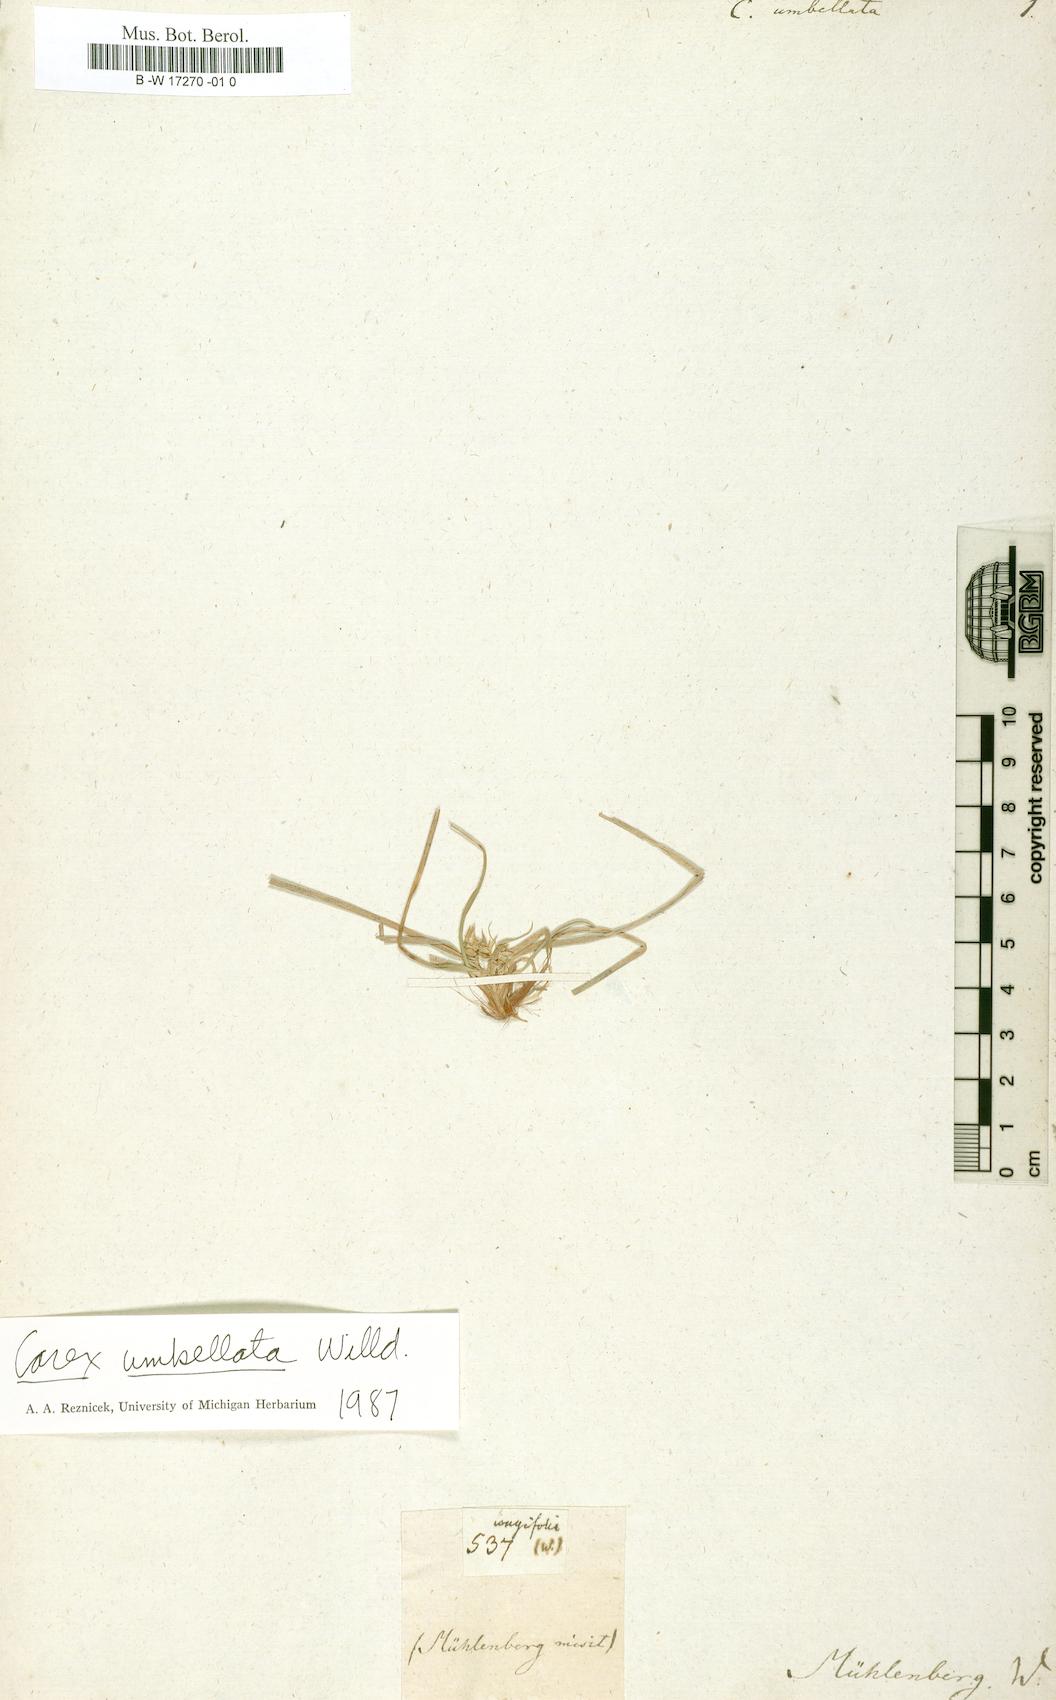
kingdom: Plantae
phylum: Tracheophyta
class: Liliopsida
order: Poales
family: Cyperaceae
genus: Carex
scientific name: Carex umbellata
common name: Early oak sedge
